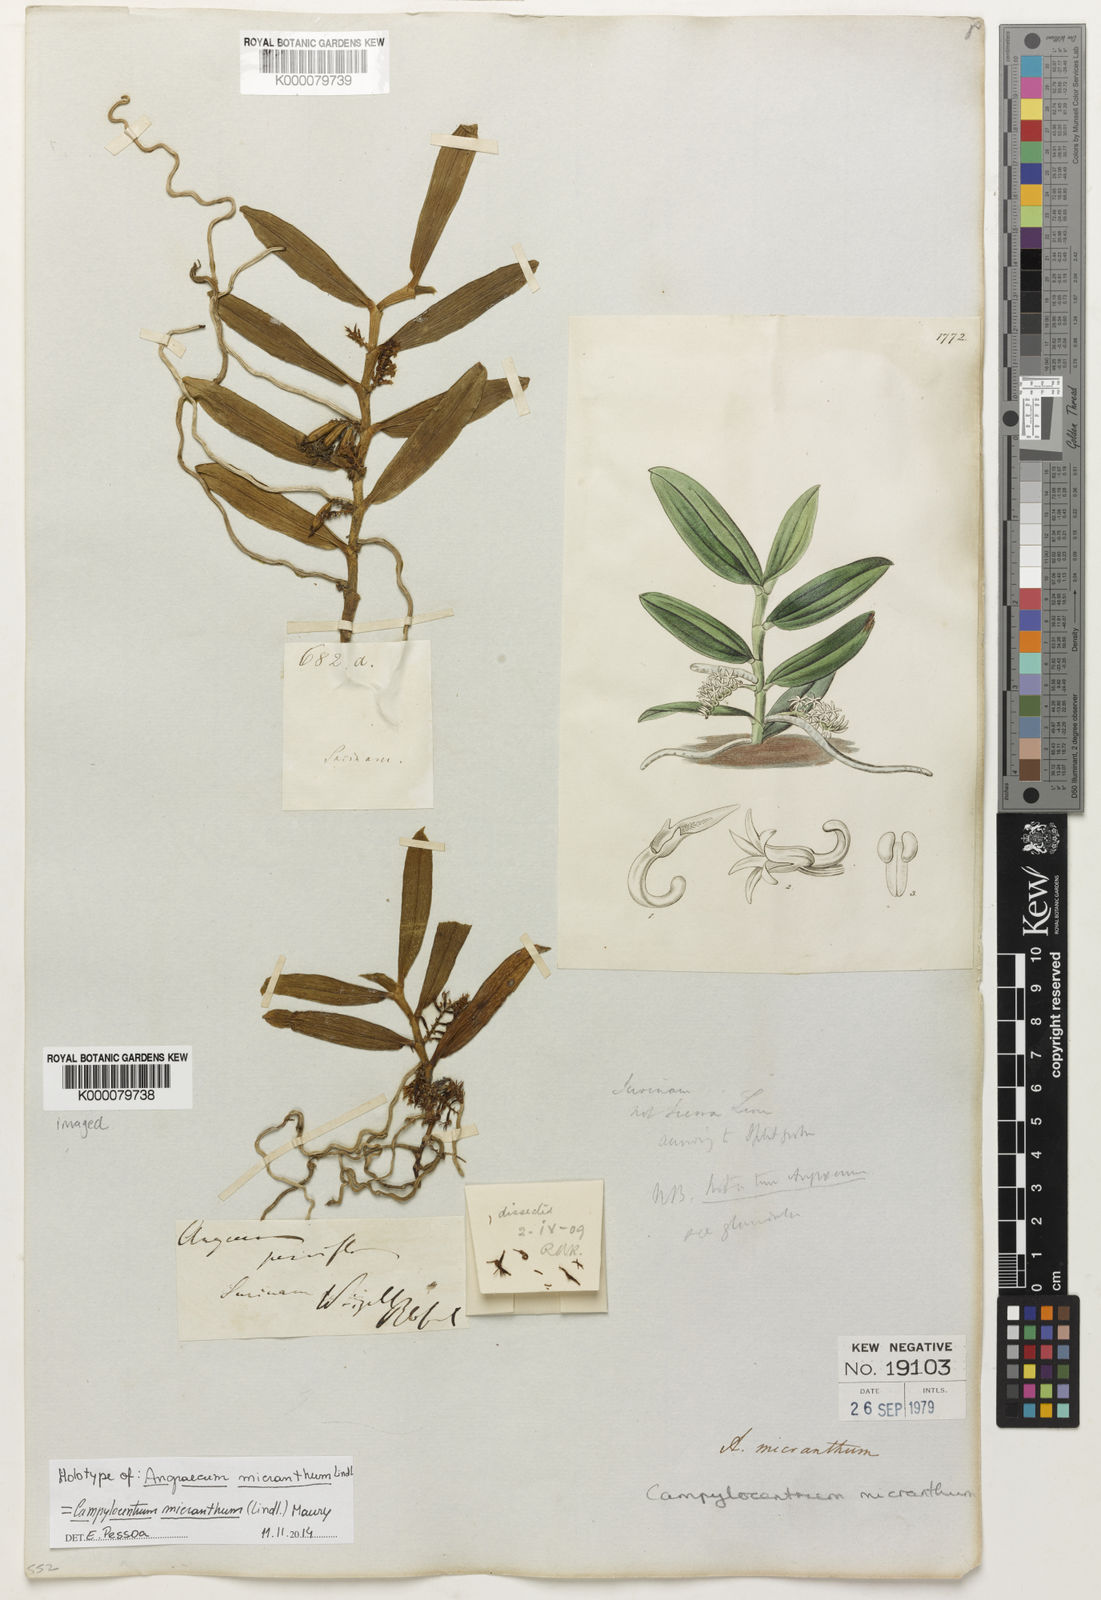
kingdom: Plantae
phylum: Tracheophyta
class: Liliopsida
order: Asparagales
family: Orchidaceae
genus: Campylocentrum
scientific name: Campylocentrum
